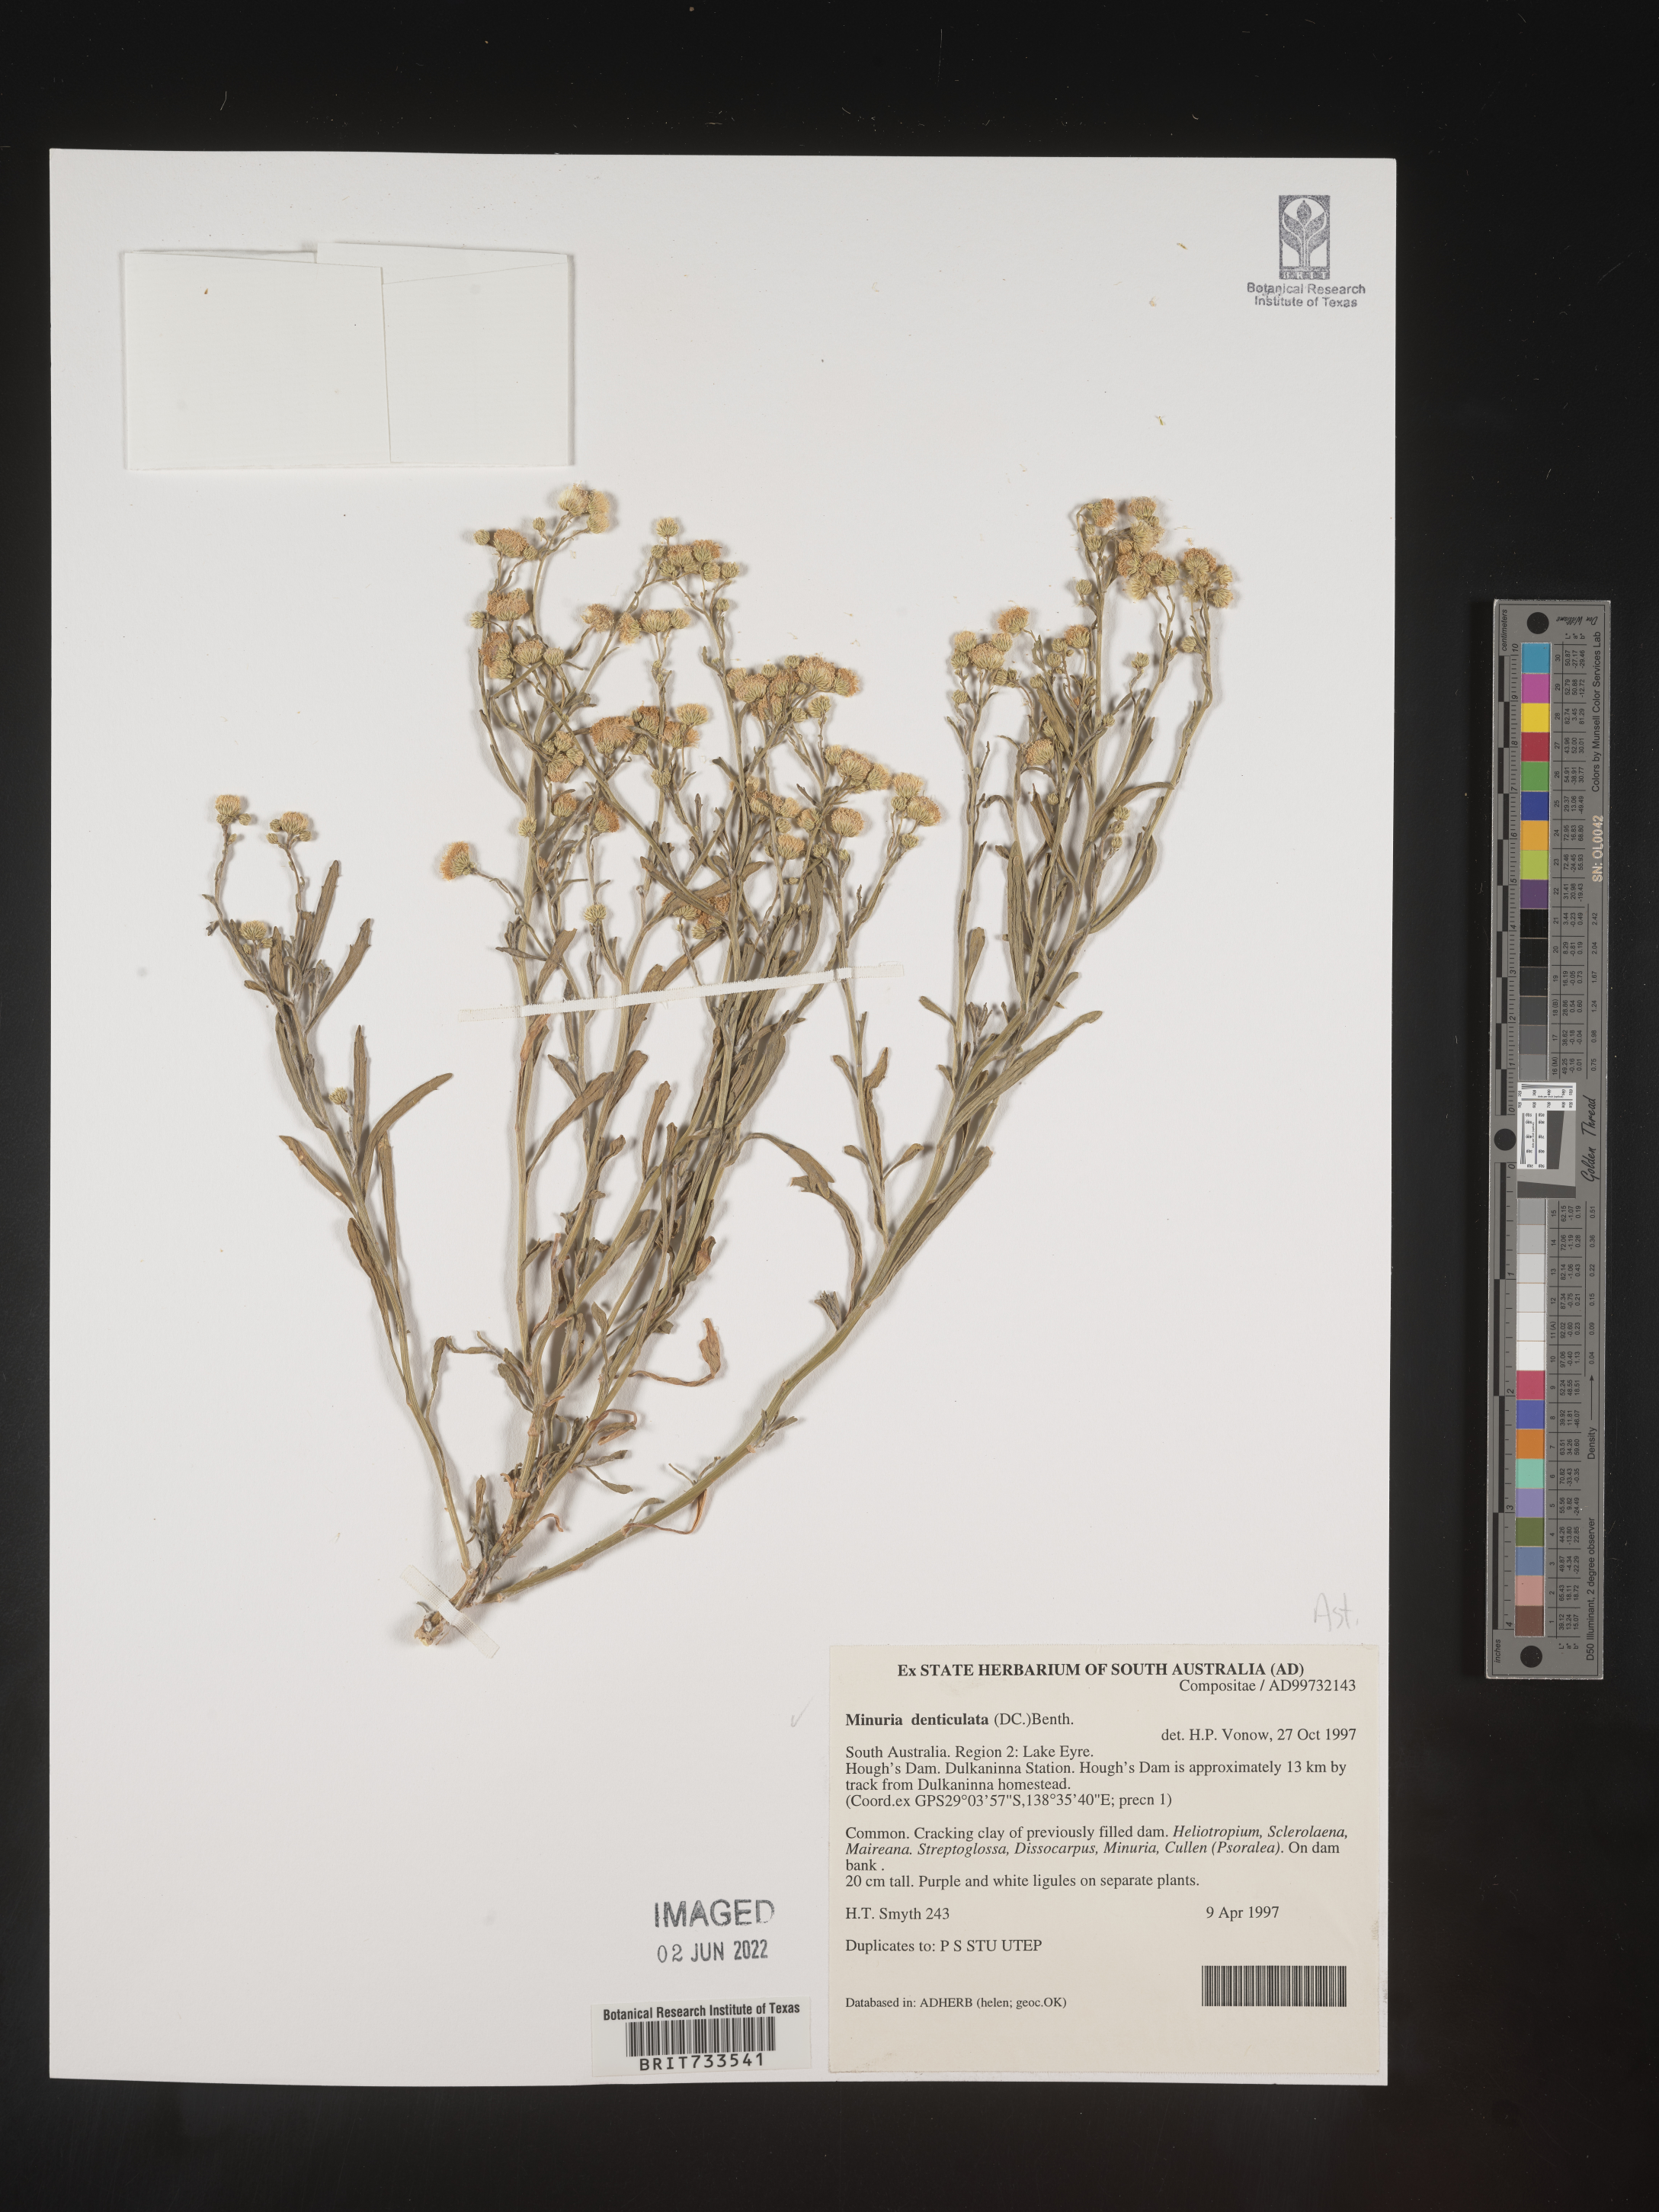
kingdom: Plantae
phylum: Tracheophyta
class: Magnoliopsida
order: Gentianales
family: Apocynaceae
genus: Minaria
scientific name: Minaria
